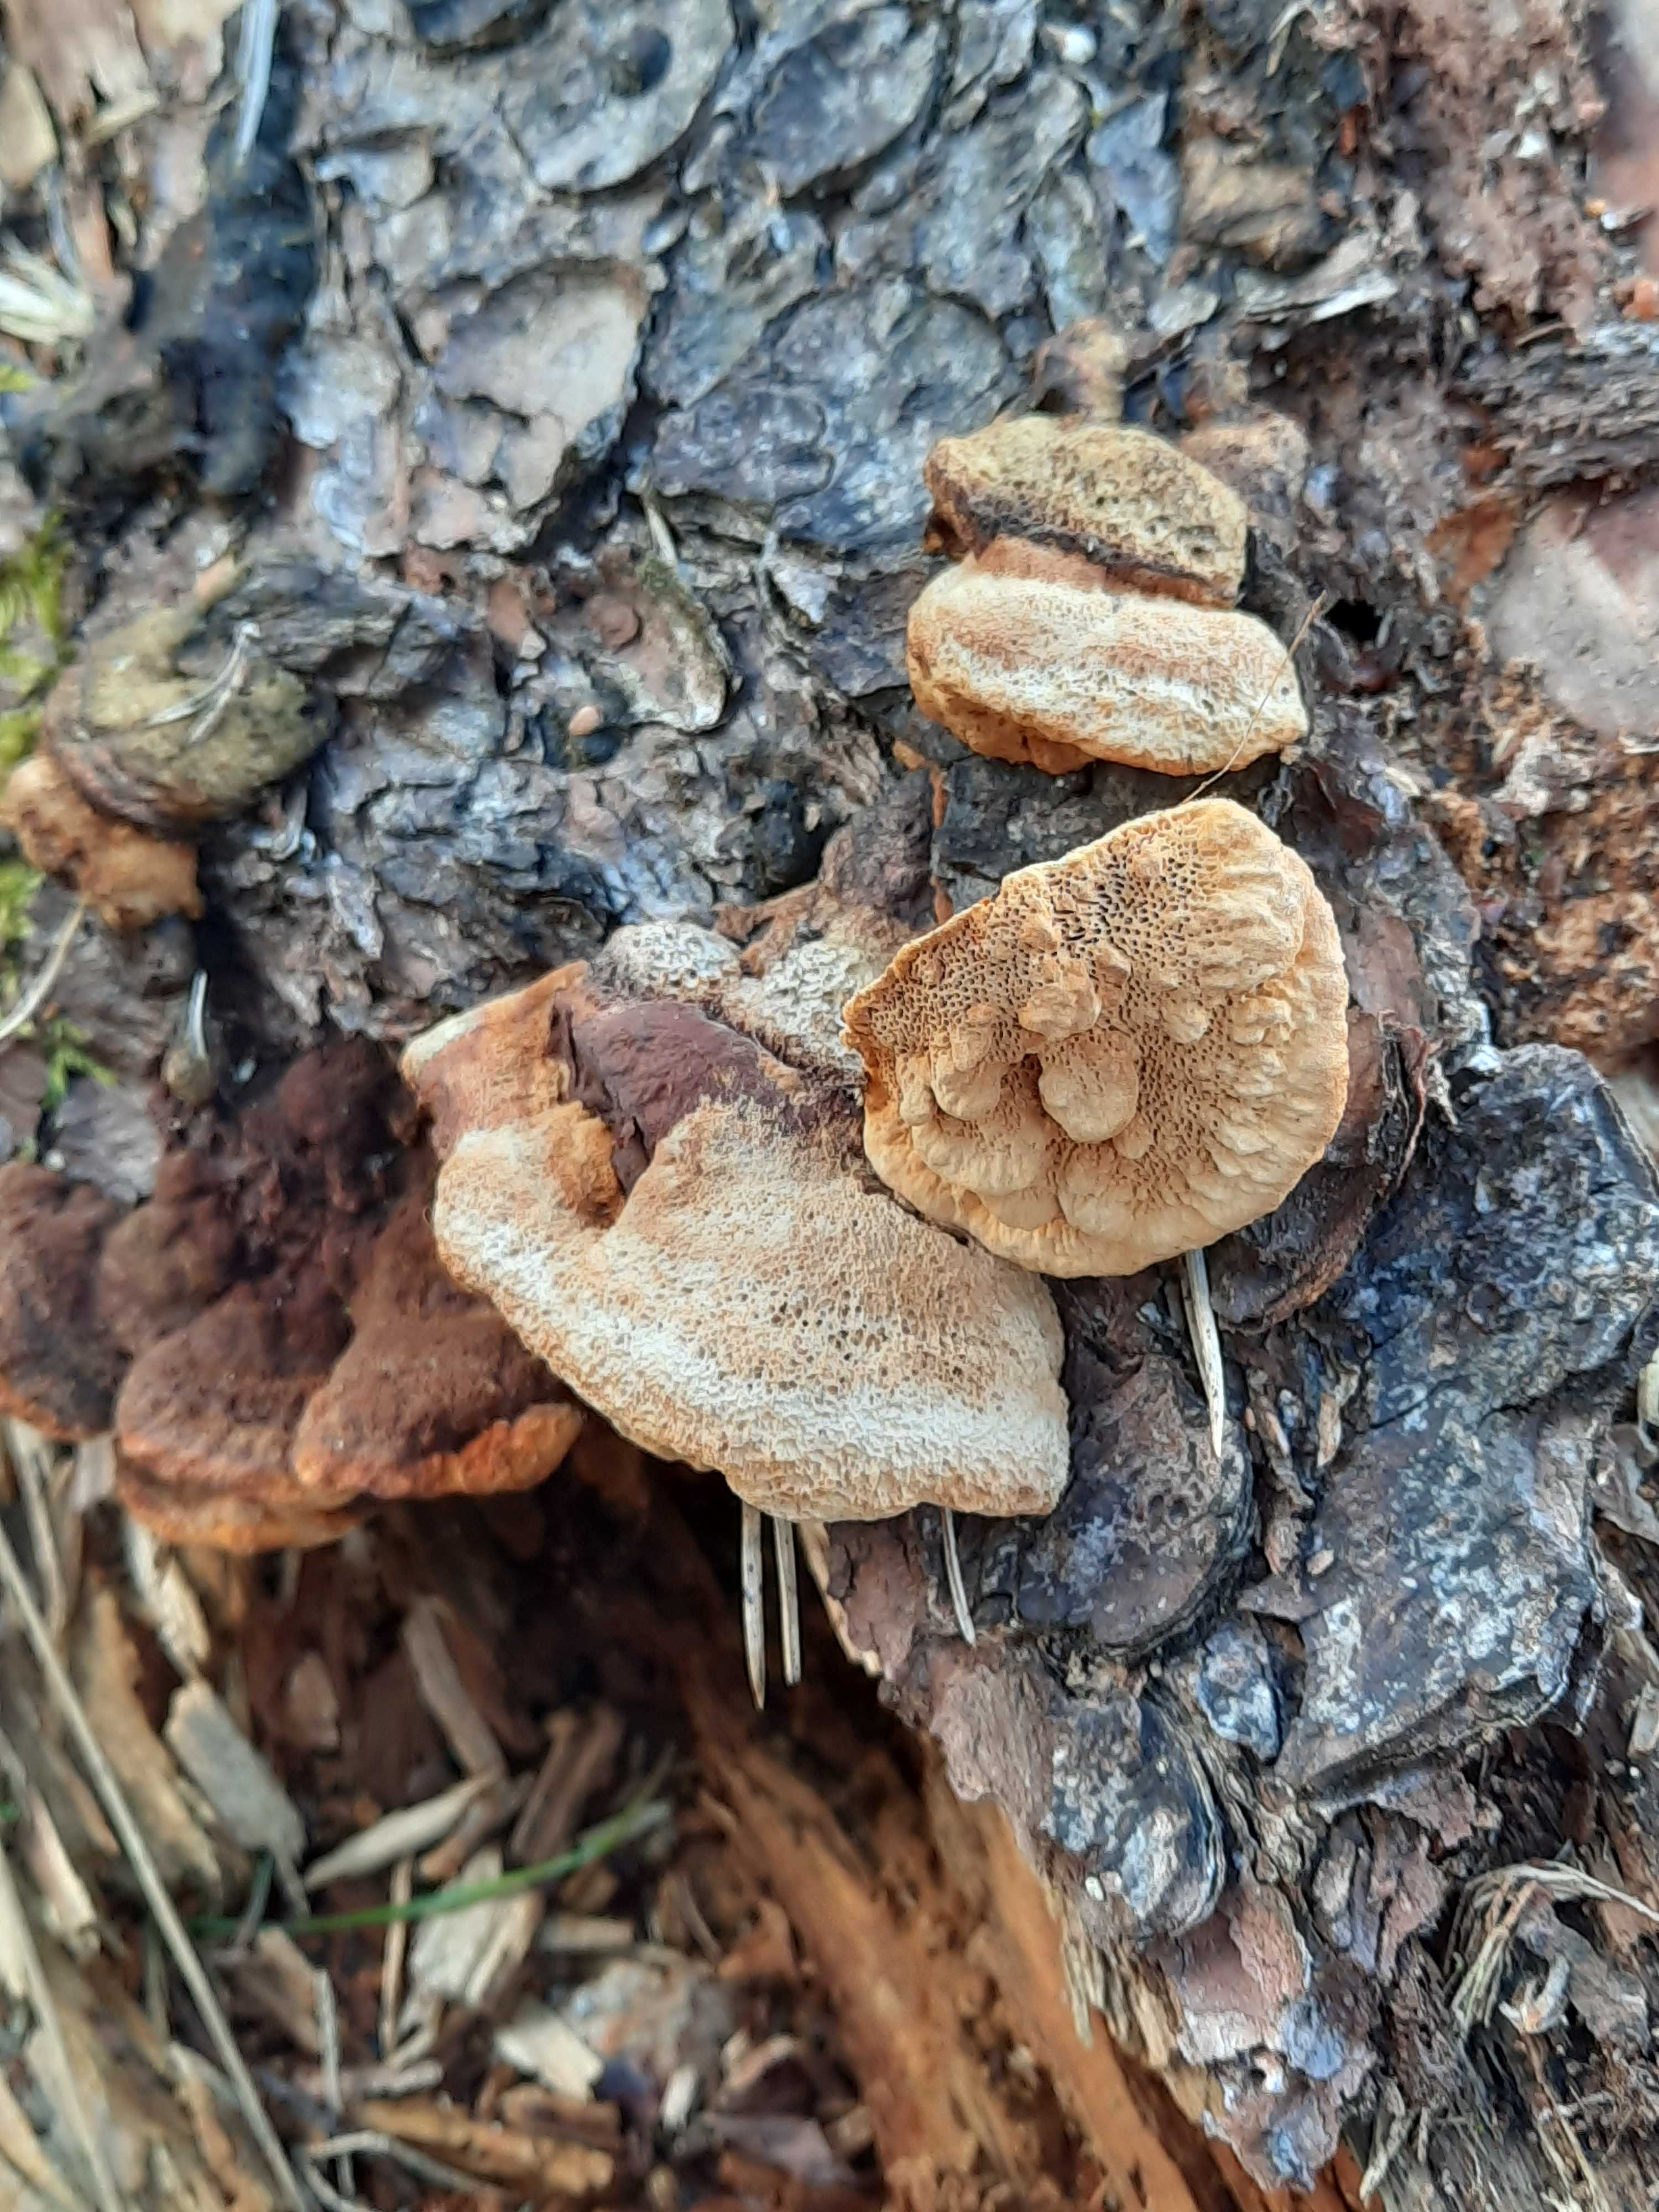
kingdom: Fungi
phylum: Basidiomycota
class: Agaricomycetes
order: Gloeophyllales
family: Gloeophyllaceae
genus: Gloeophyllum
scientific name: Gloeophyllum odoratum
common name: duftende korkhat
